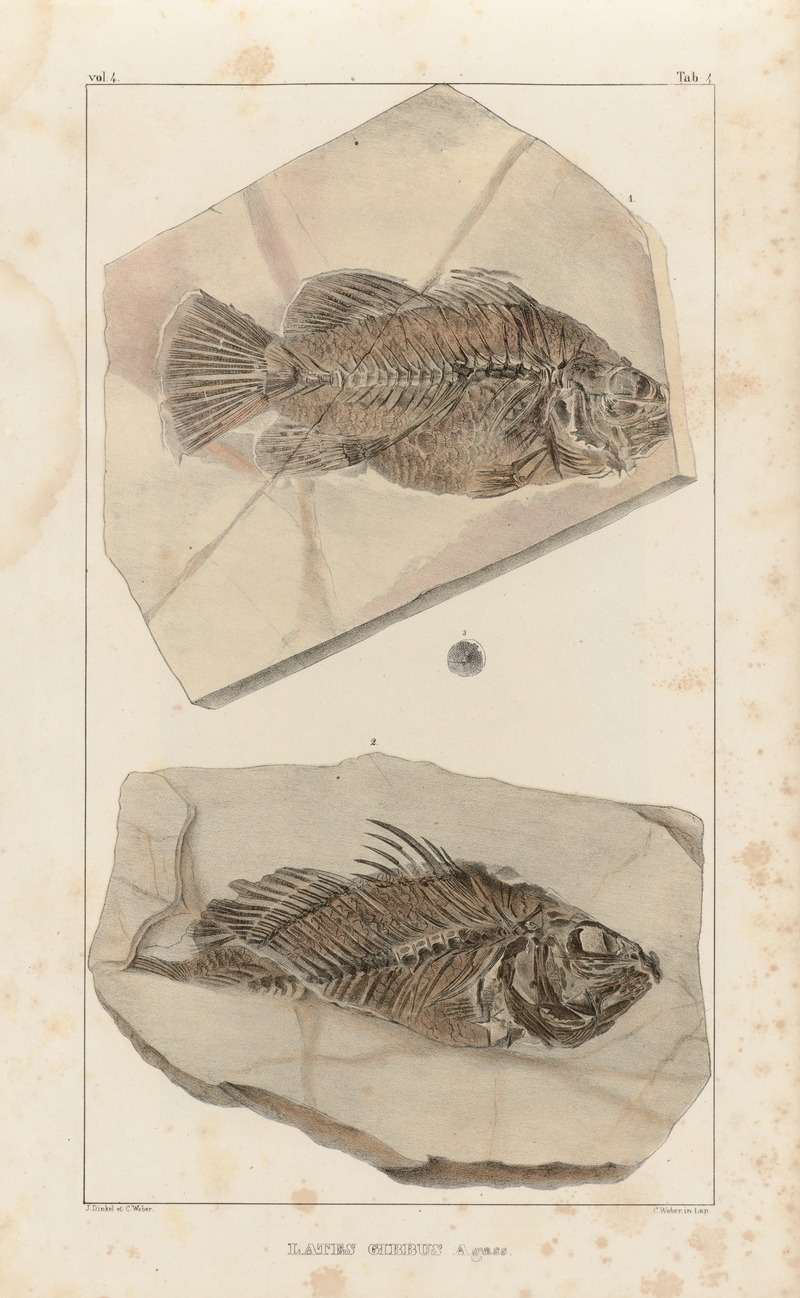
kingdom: Animalia
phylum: Chordata
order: Perciformes
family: Latidae
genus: Lates
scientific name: Lates gracilis
